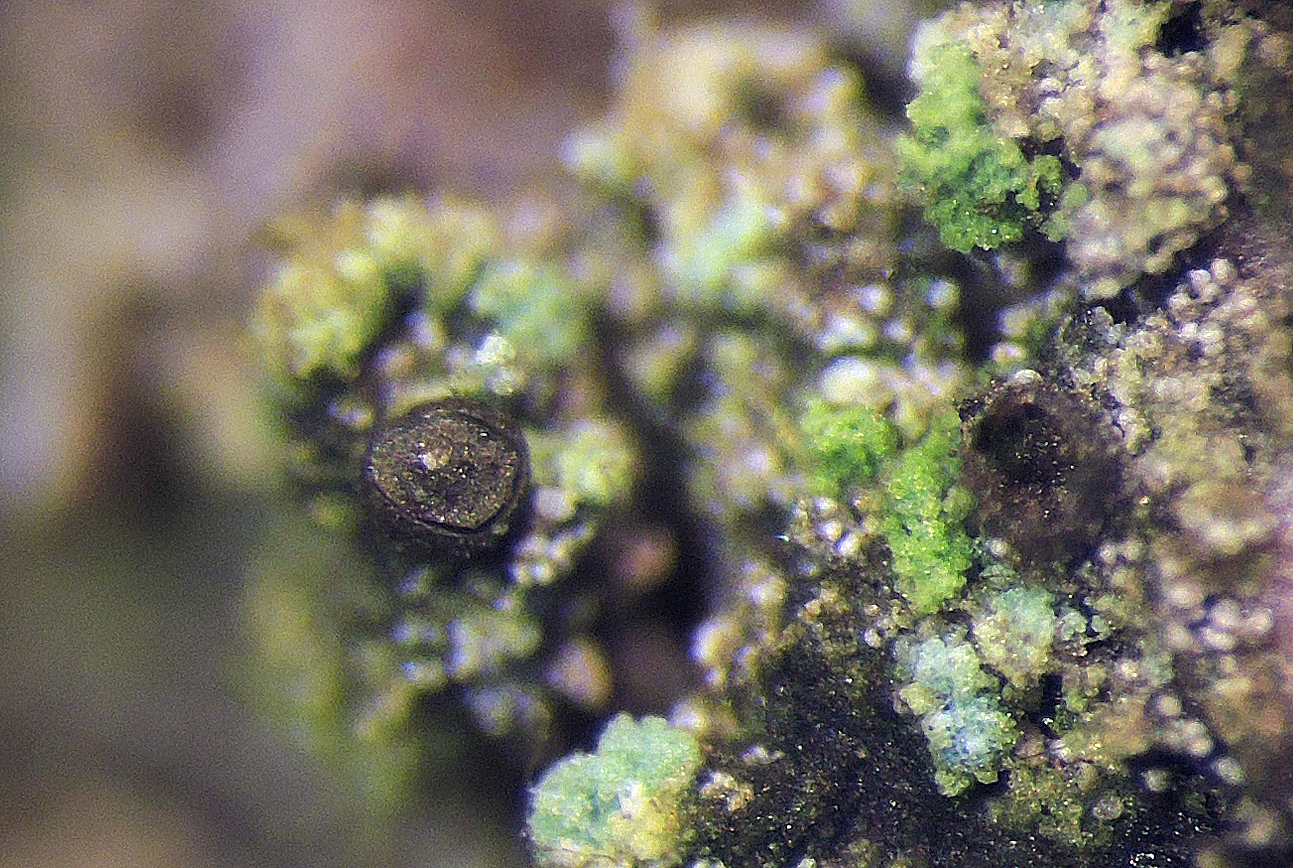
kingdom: Protozoa
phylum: Mycetozoa
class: Myxomycetes
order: Cribrariales
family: Liceaceae
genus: Licea
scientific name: Licea parasitica
